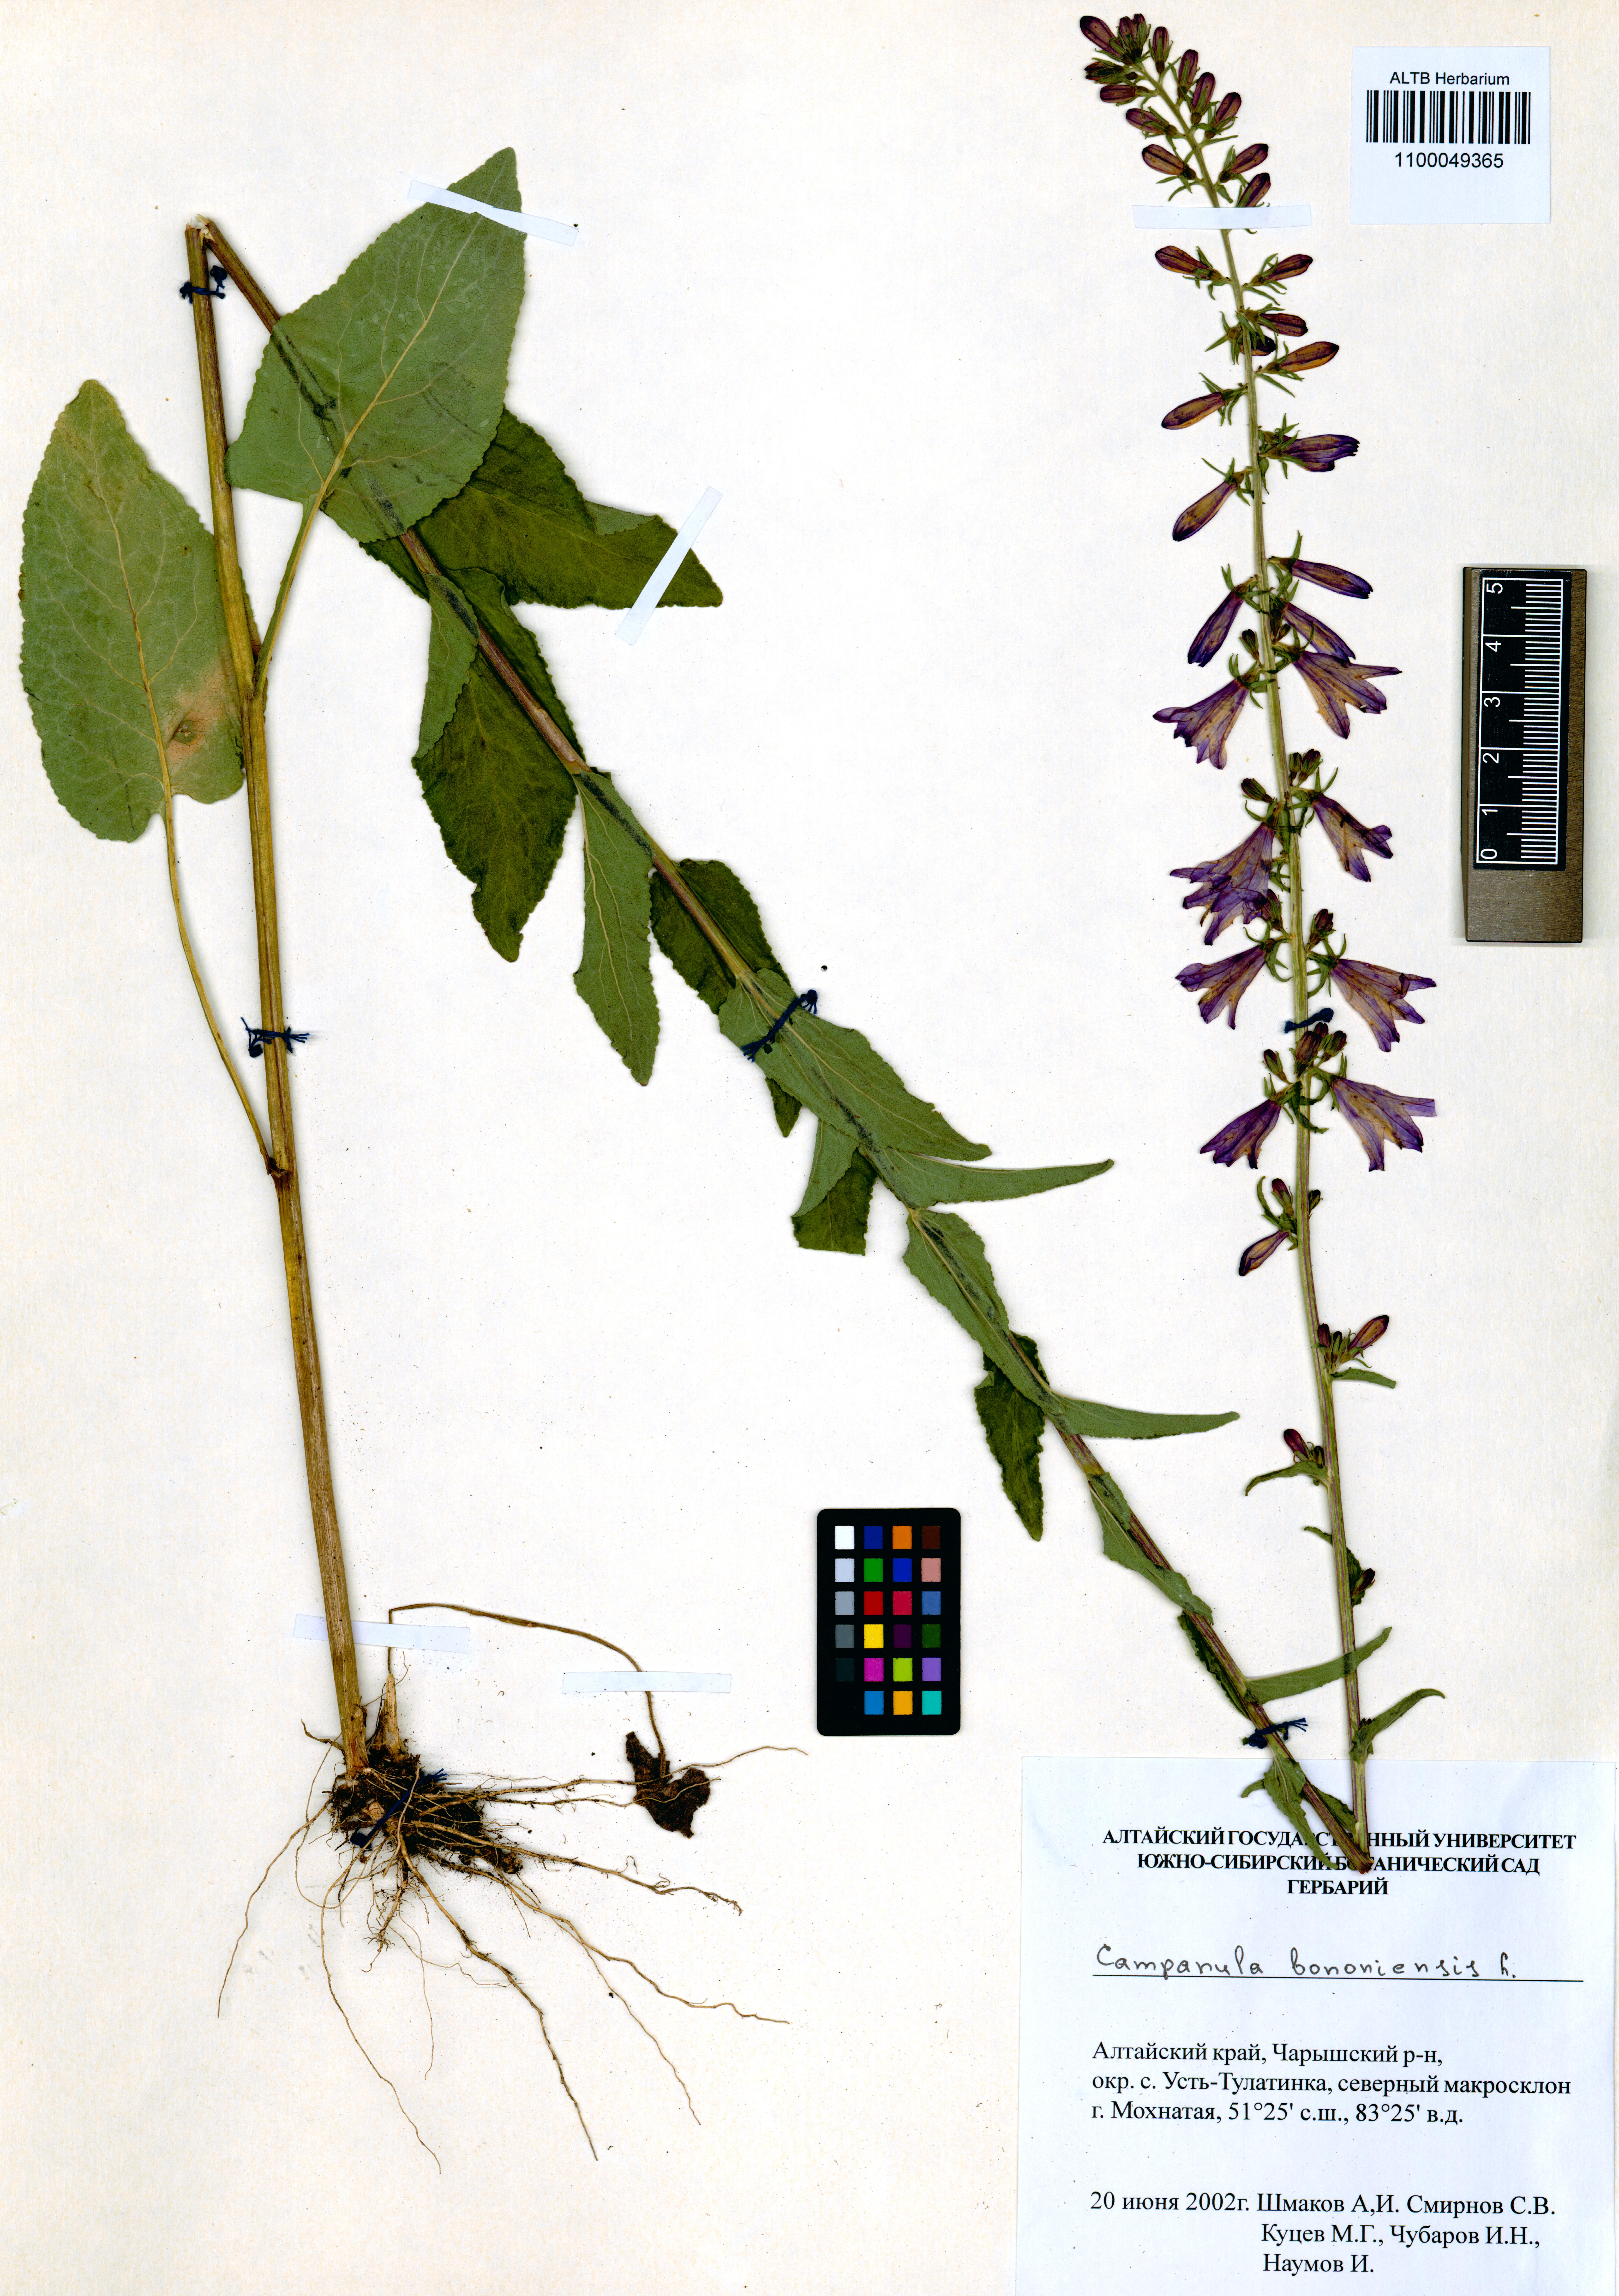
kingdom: Plantae
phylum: Tracheophyta
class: Magnoliopsida
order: Asterales
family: Campanulaceae
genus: Campanula
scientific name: Campanula bononiensis
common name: Pale bellflower
